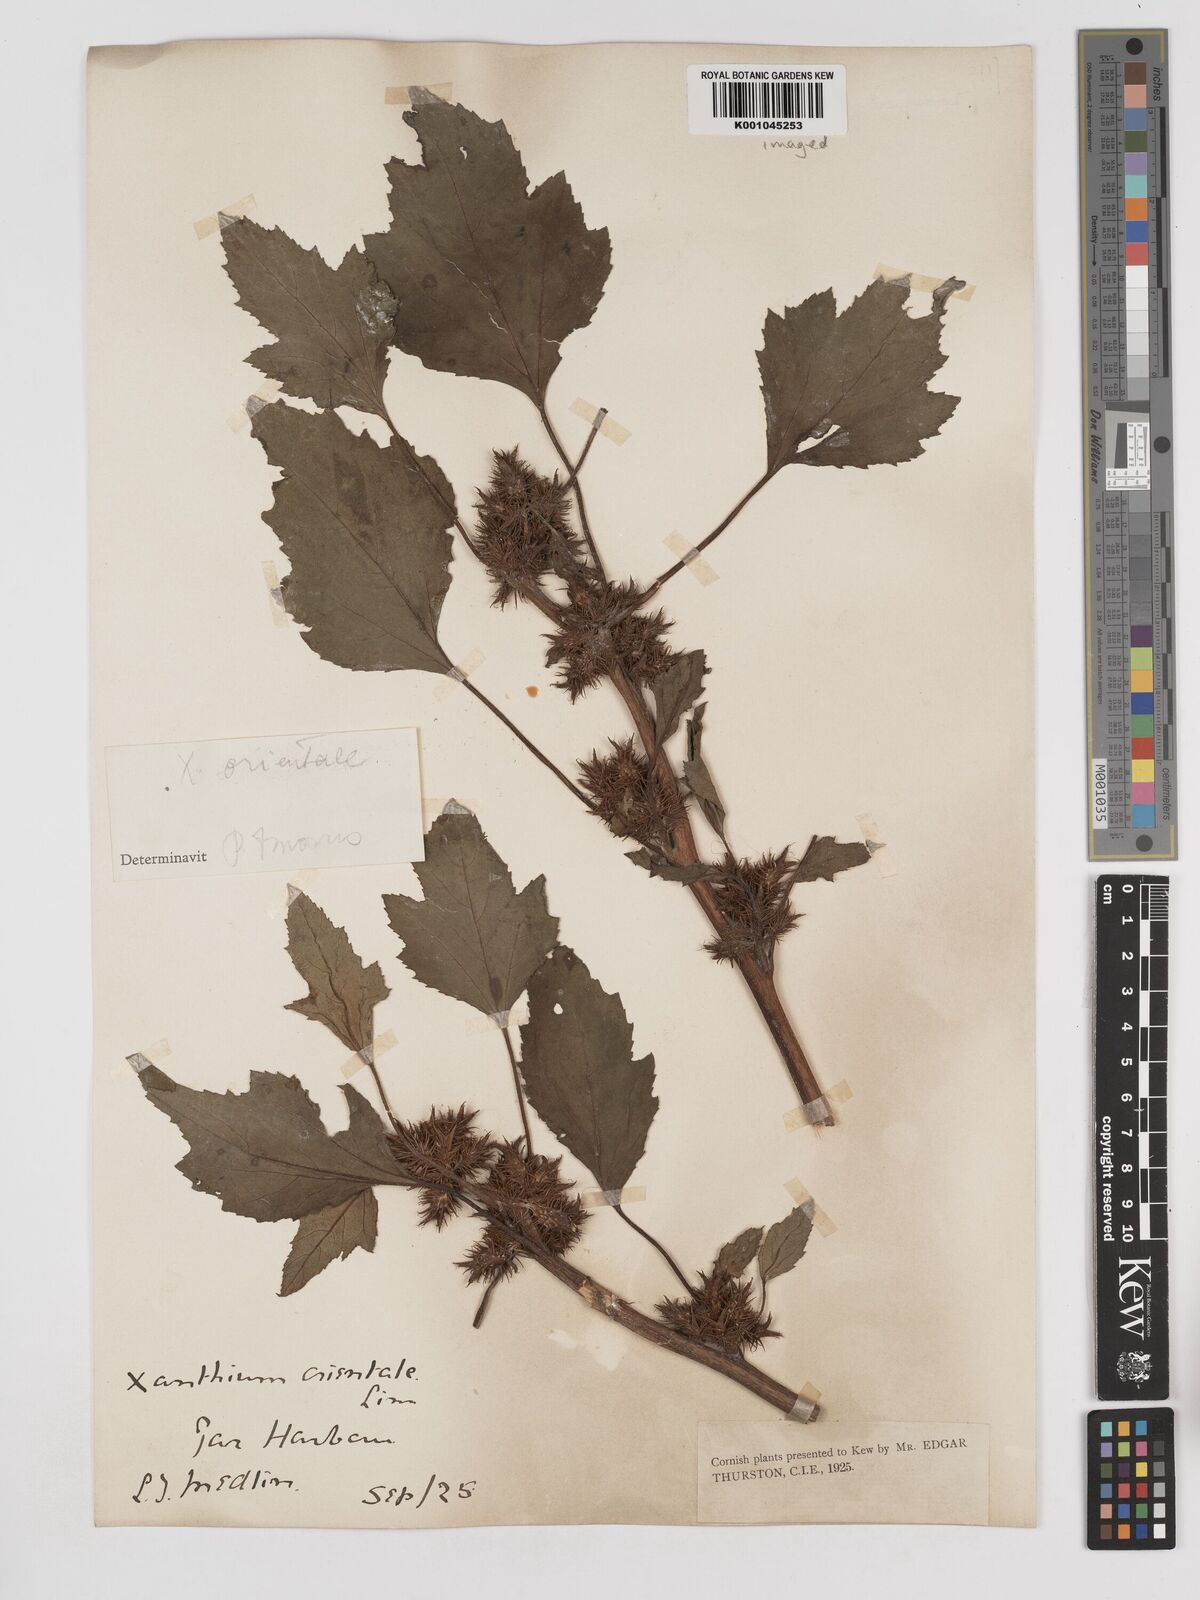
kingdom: Plantae
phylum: Tracheophyta
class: Magnoliopsida
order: Asterales
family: Asteraceae
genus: Xanthium
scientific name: Xanthium strumarium
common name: Rough cocklebur
